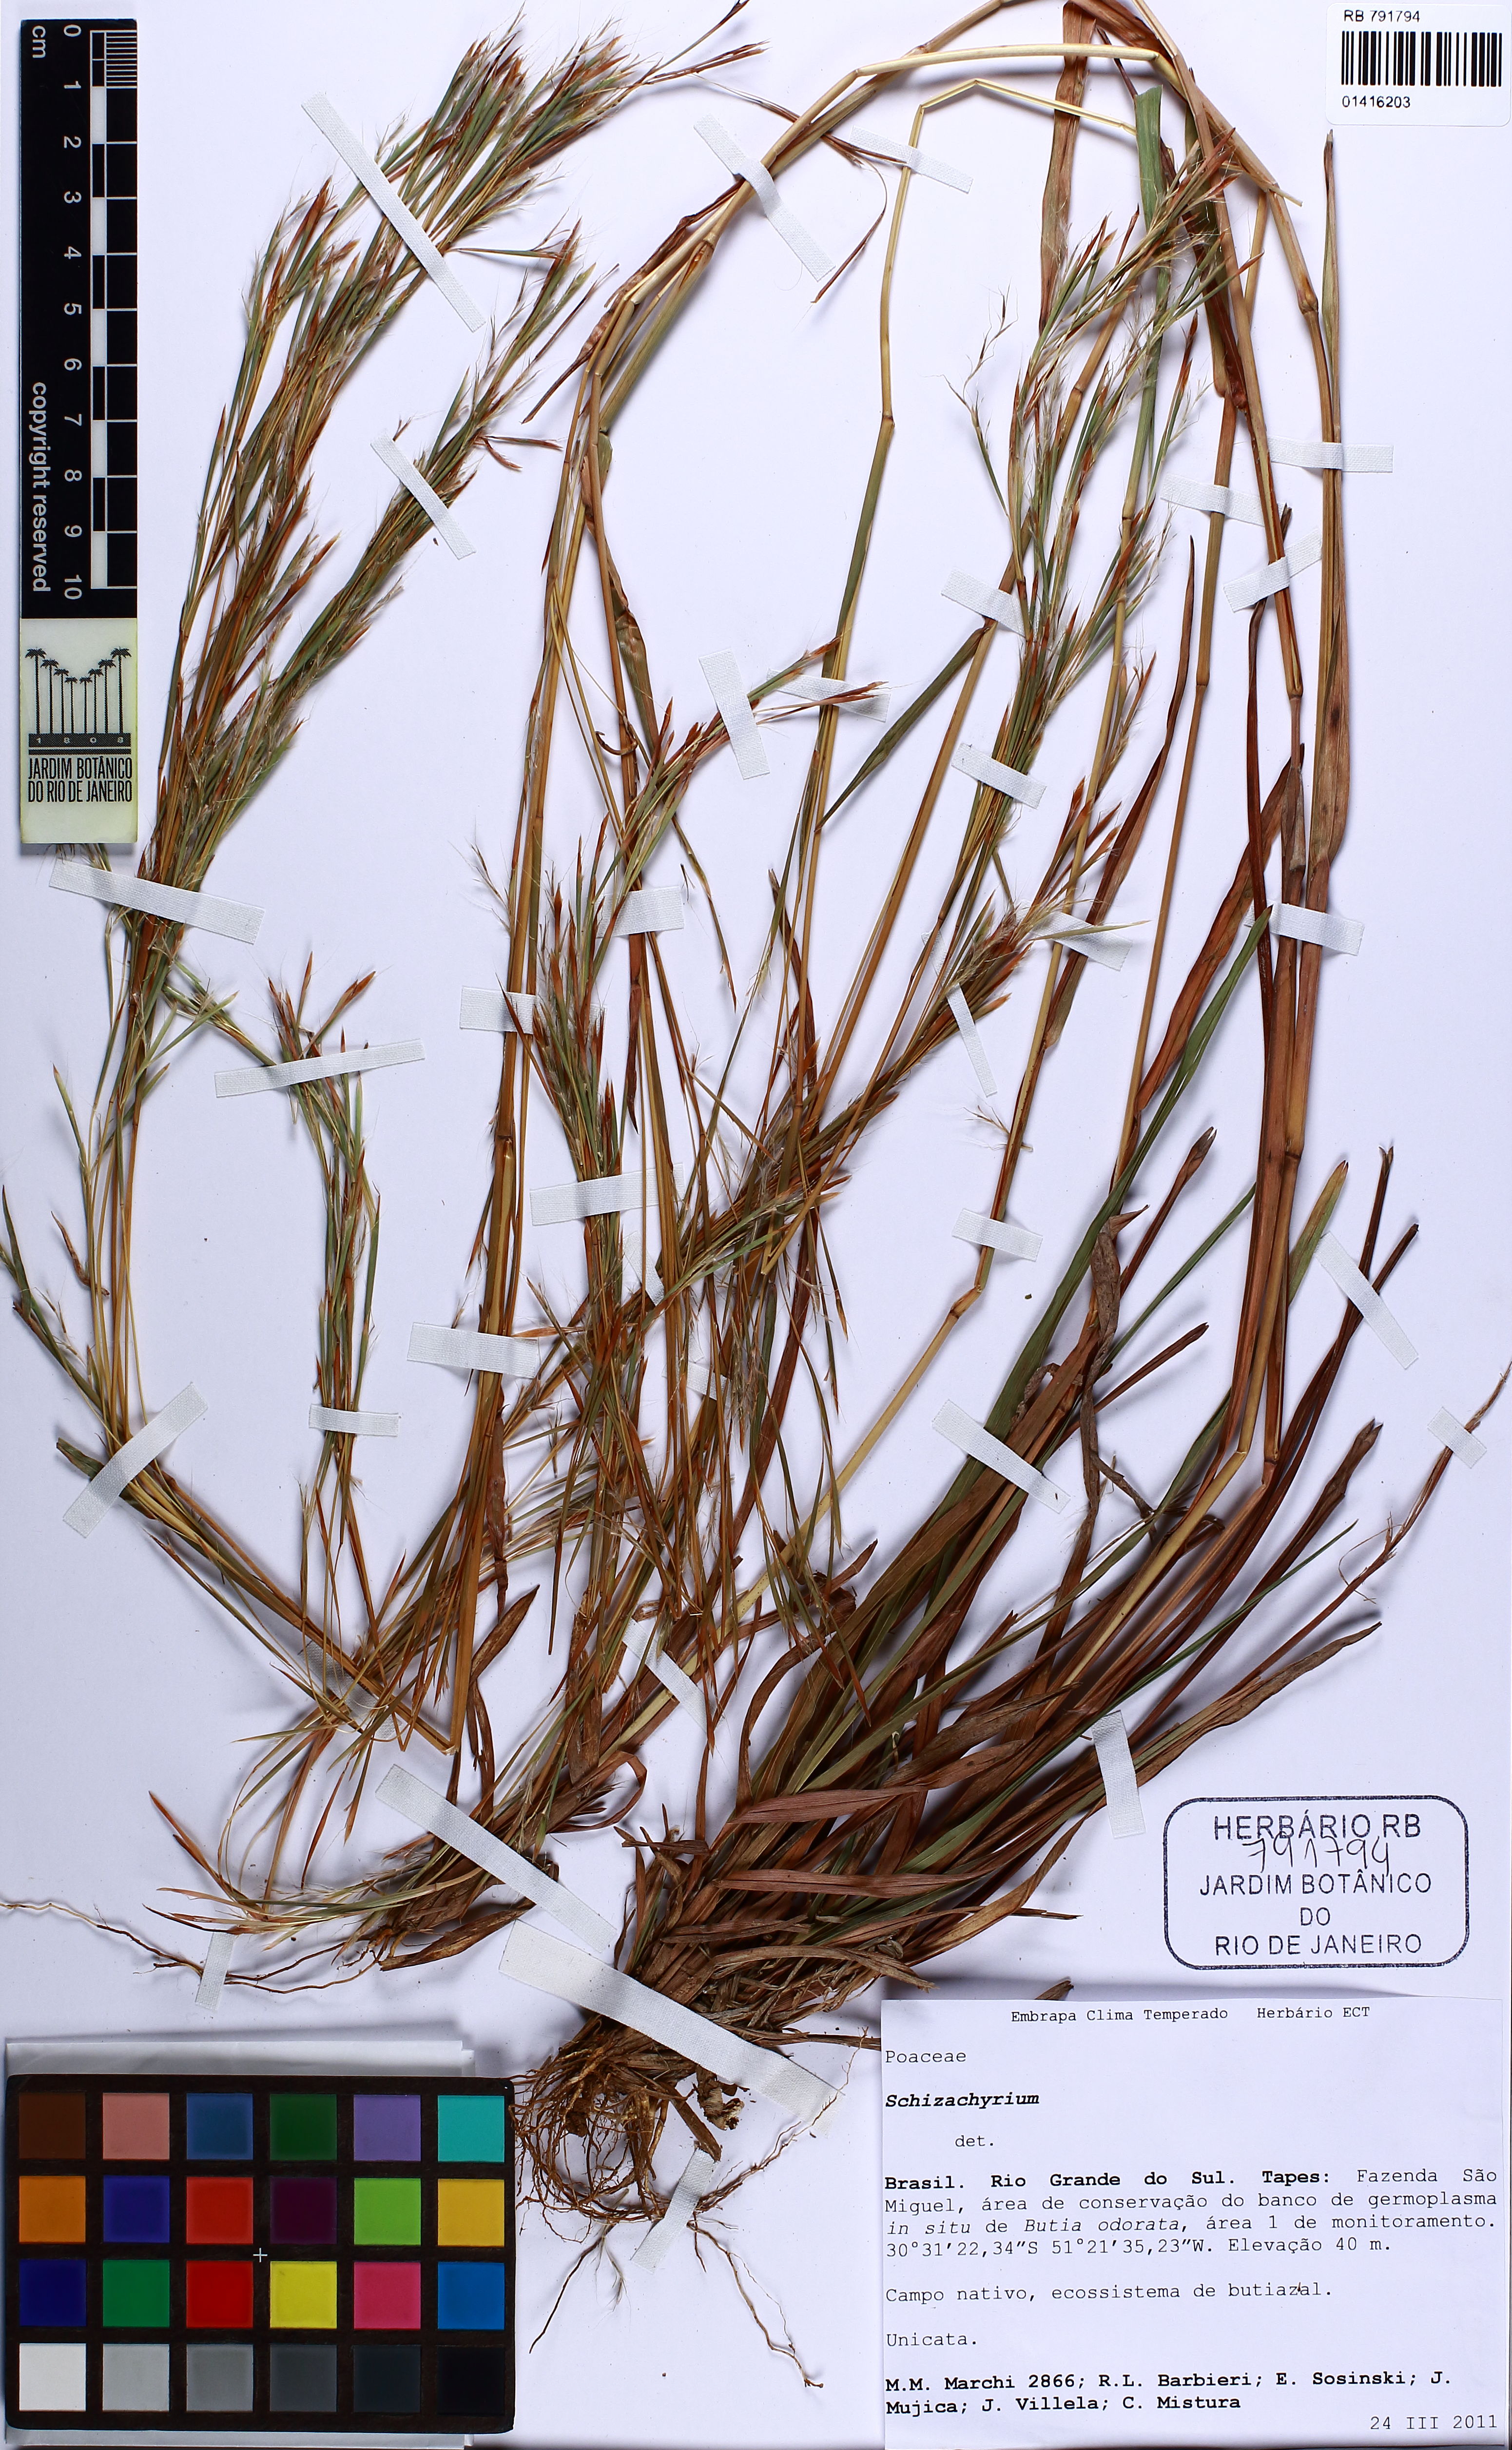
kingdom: Plantae
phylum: Tracheophyta
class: Liliopsida
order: Poales
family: Poaceae
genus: Schizachyrium
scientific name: Schizachyrium
